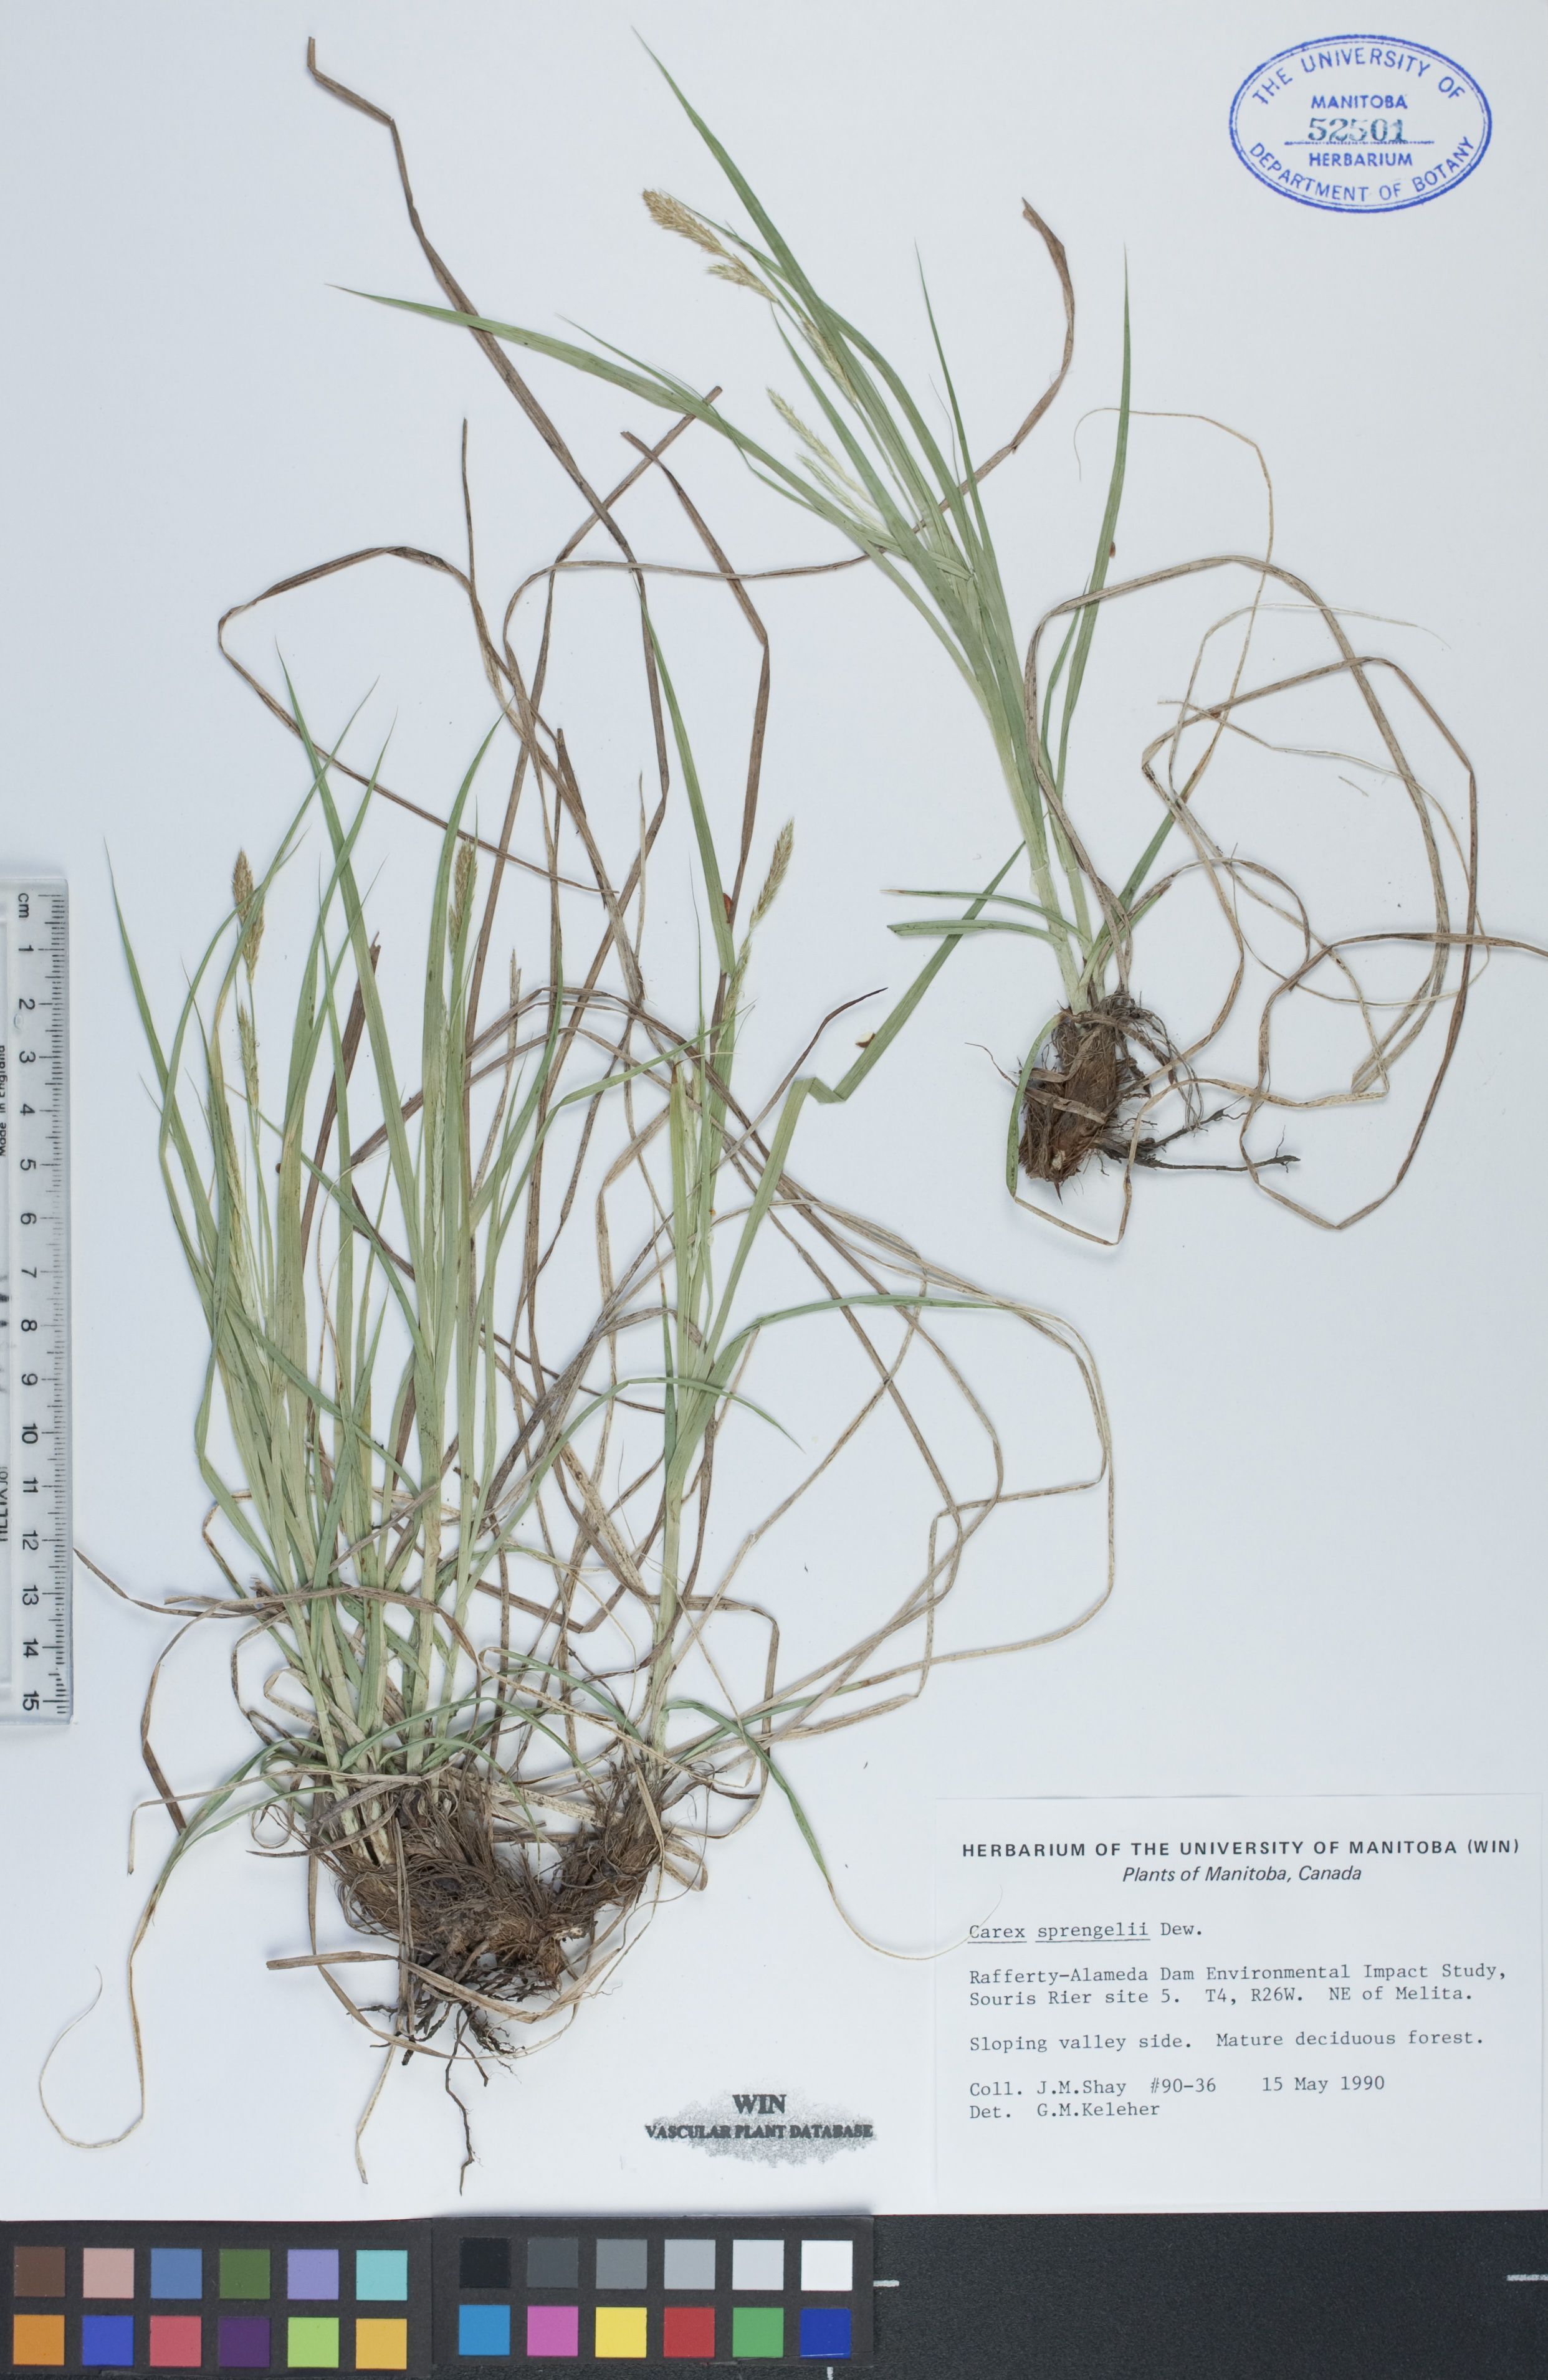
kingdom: Plantae
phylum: Tracheophyta
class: Liliopsida
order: Poales
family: Cyperaceae
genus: Carex
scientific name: Carex sprengelii
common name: Long-beaked sedge
